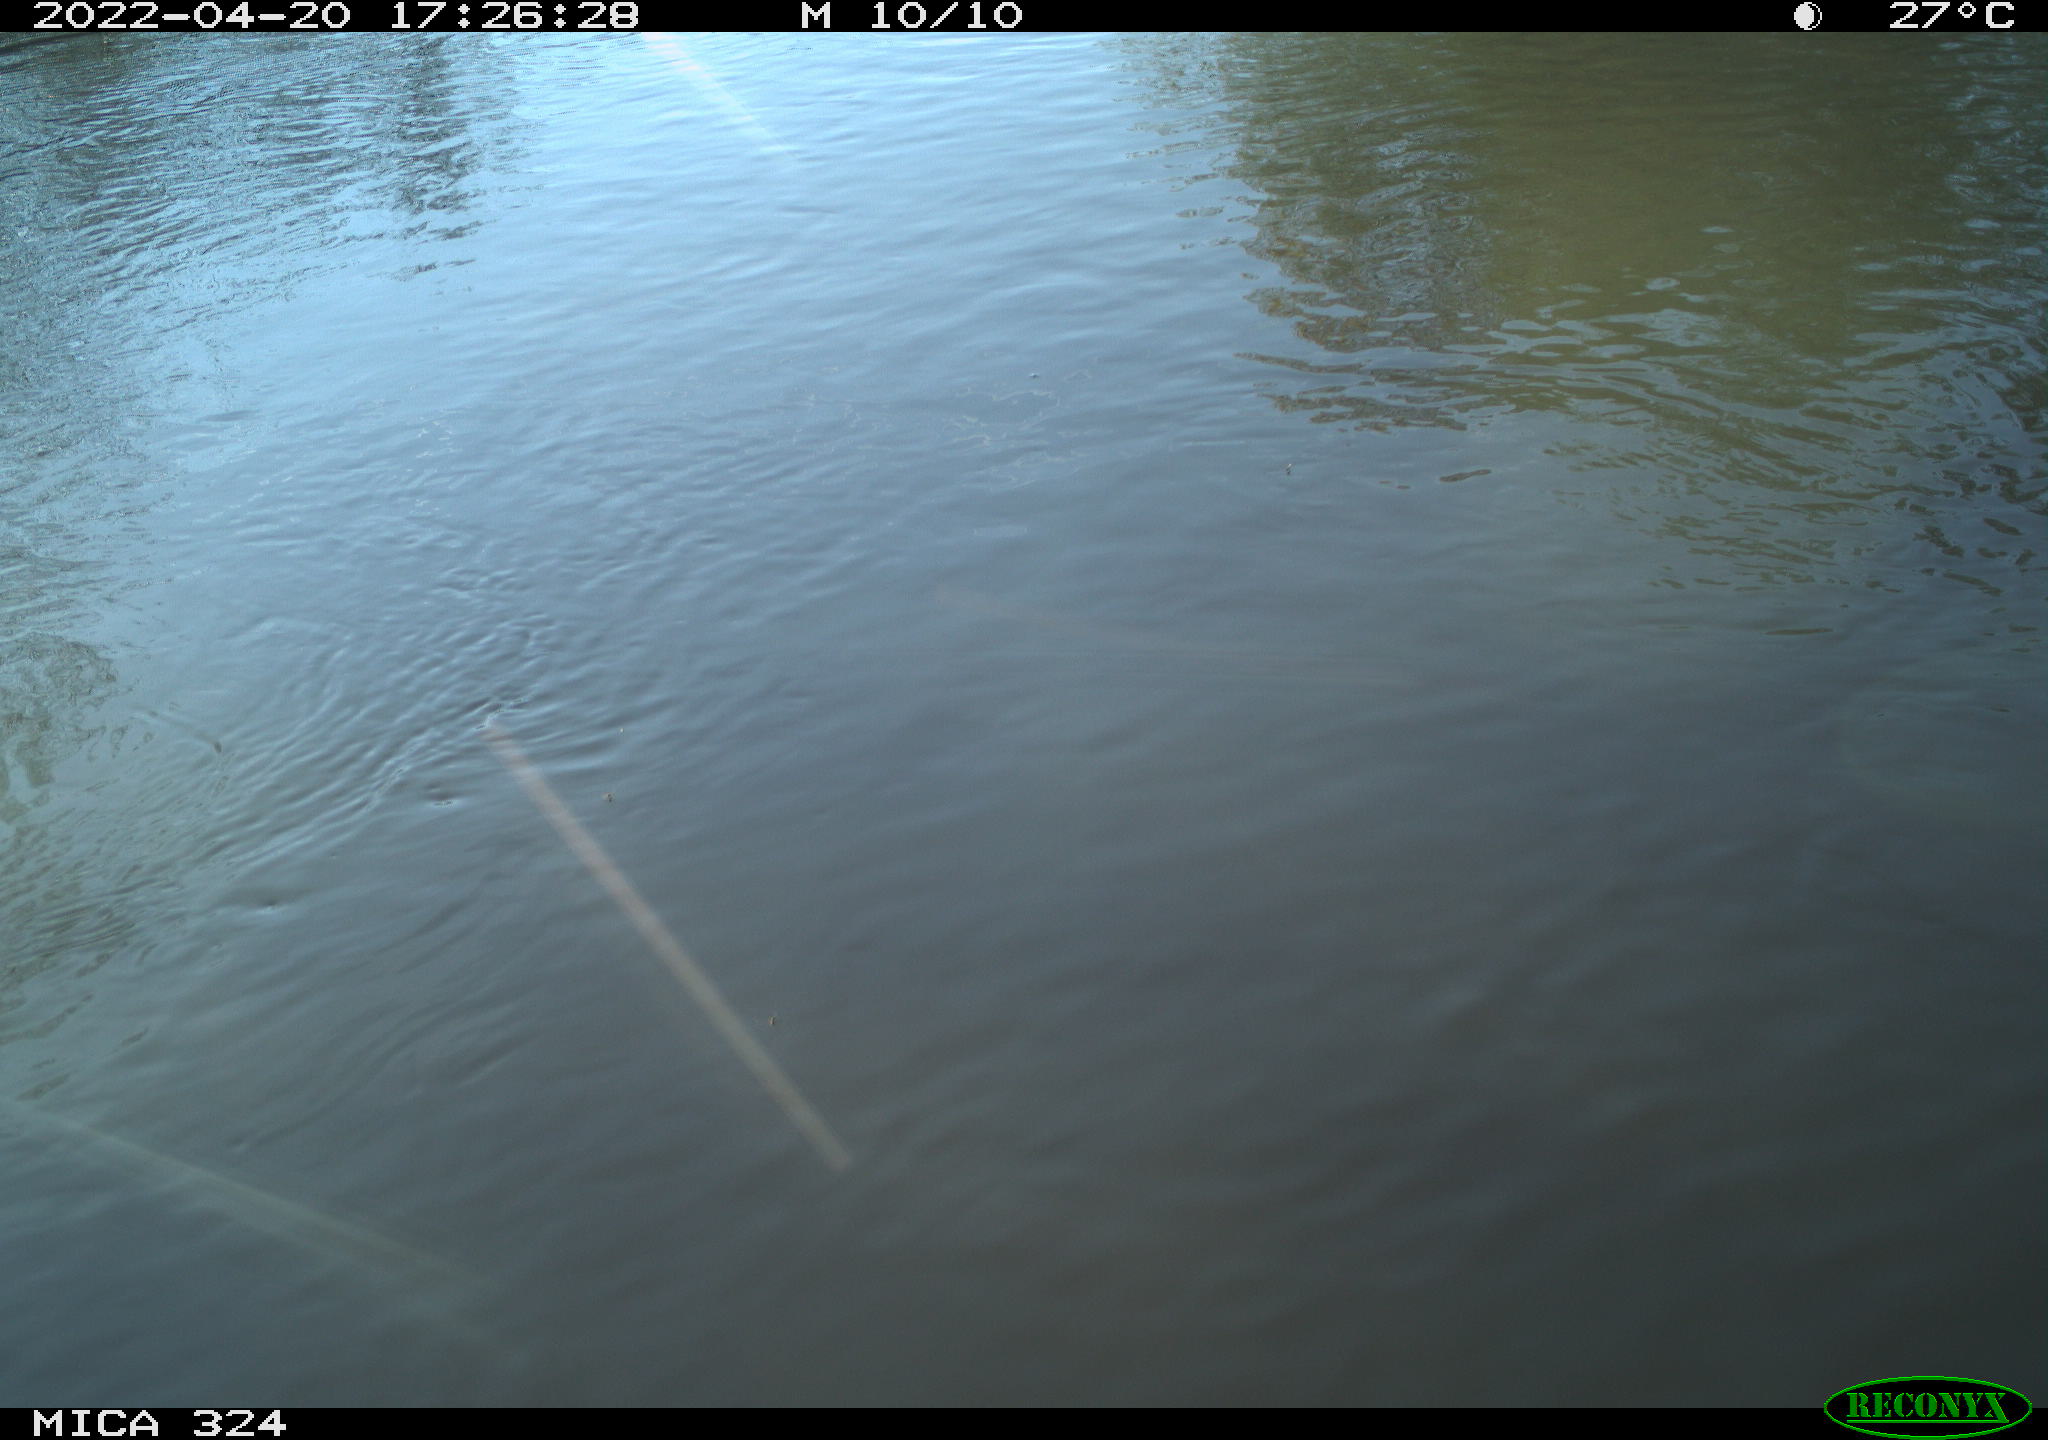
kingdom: Animalia
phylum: Chordata
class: Mammalia
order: Rodentia
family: Cricetidae
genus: Ondatra
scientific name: Ondatra zibethicus
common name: Muskrat
